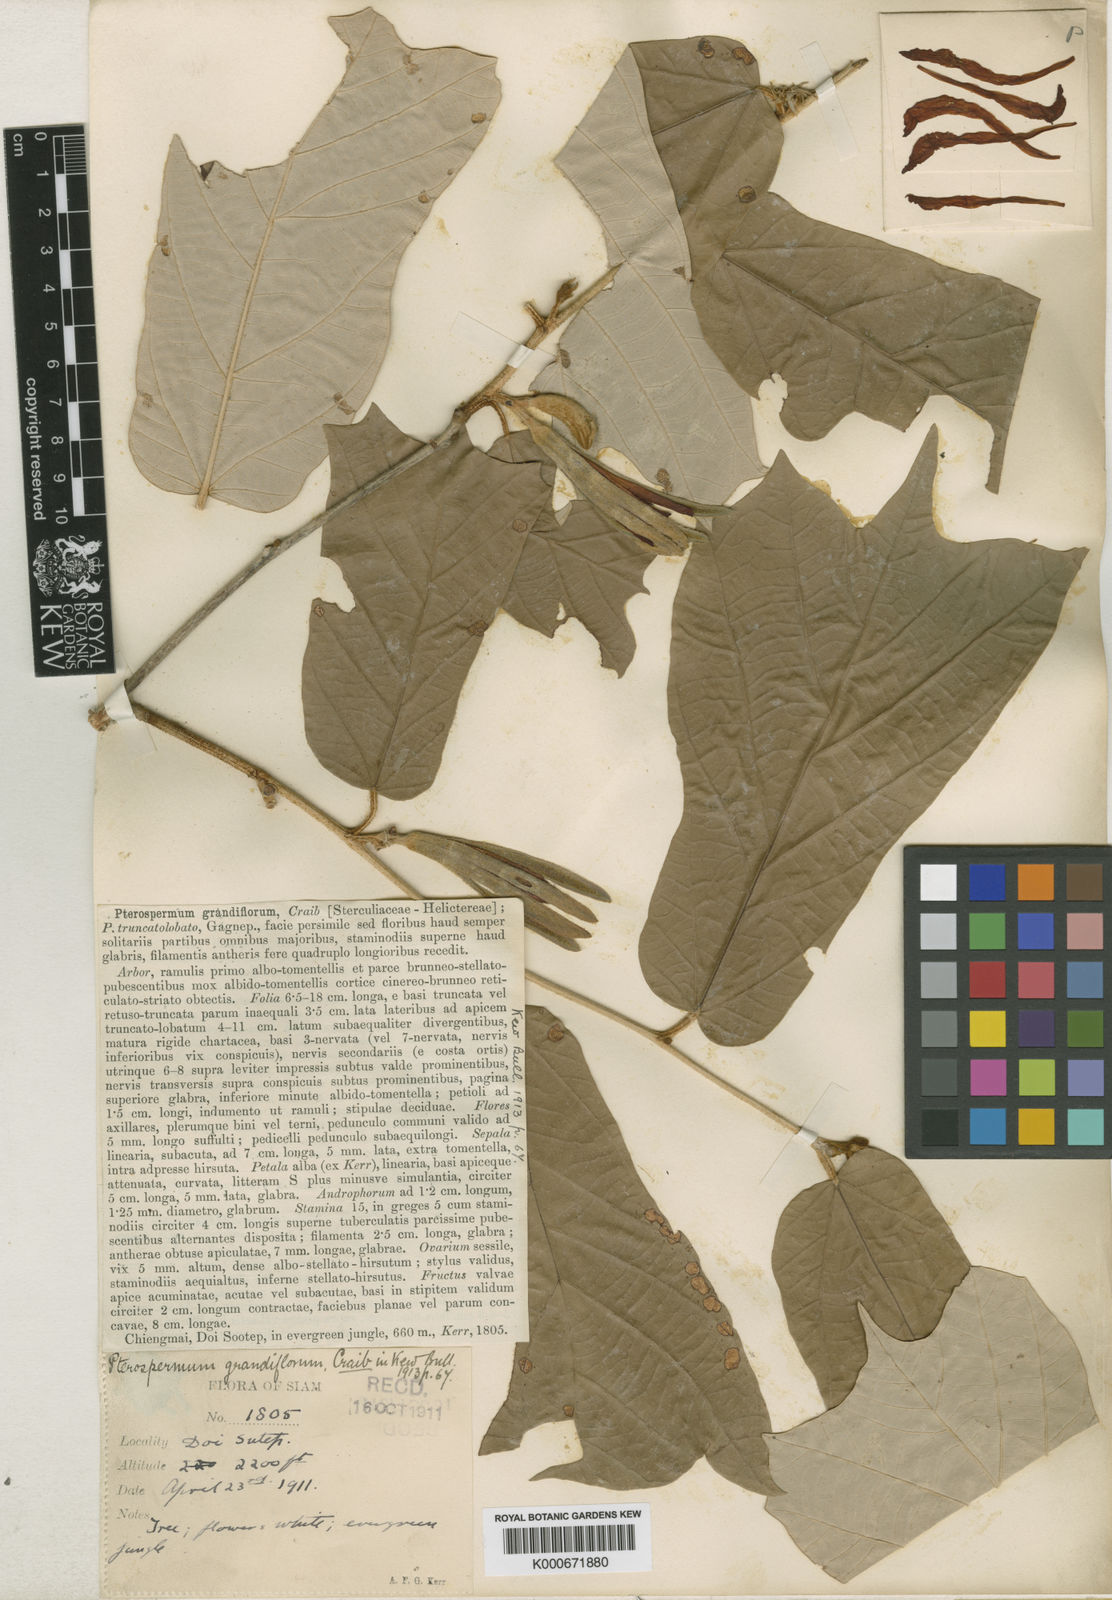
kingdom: Plantae
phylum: Tracheophyta
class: Magnoliopsida
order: Malvales
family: Malvaceae
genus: Pterospermum
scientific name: Pterospermum grandiflorum
